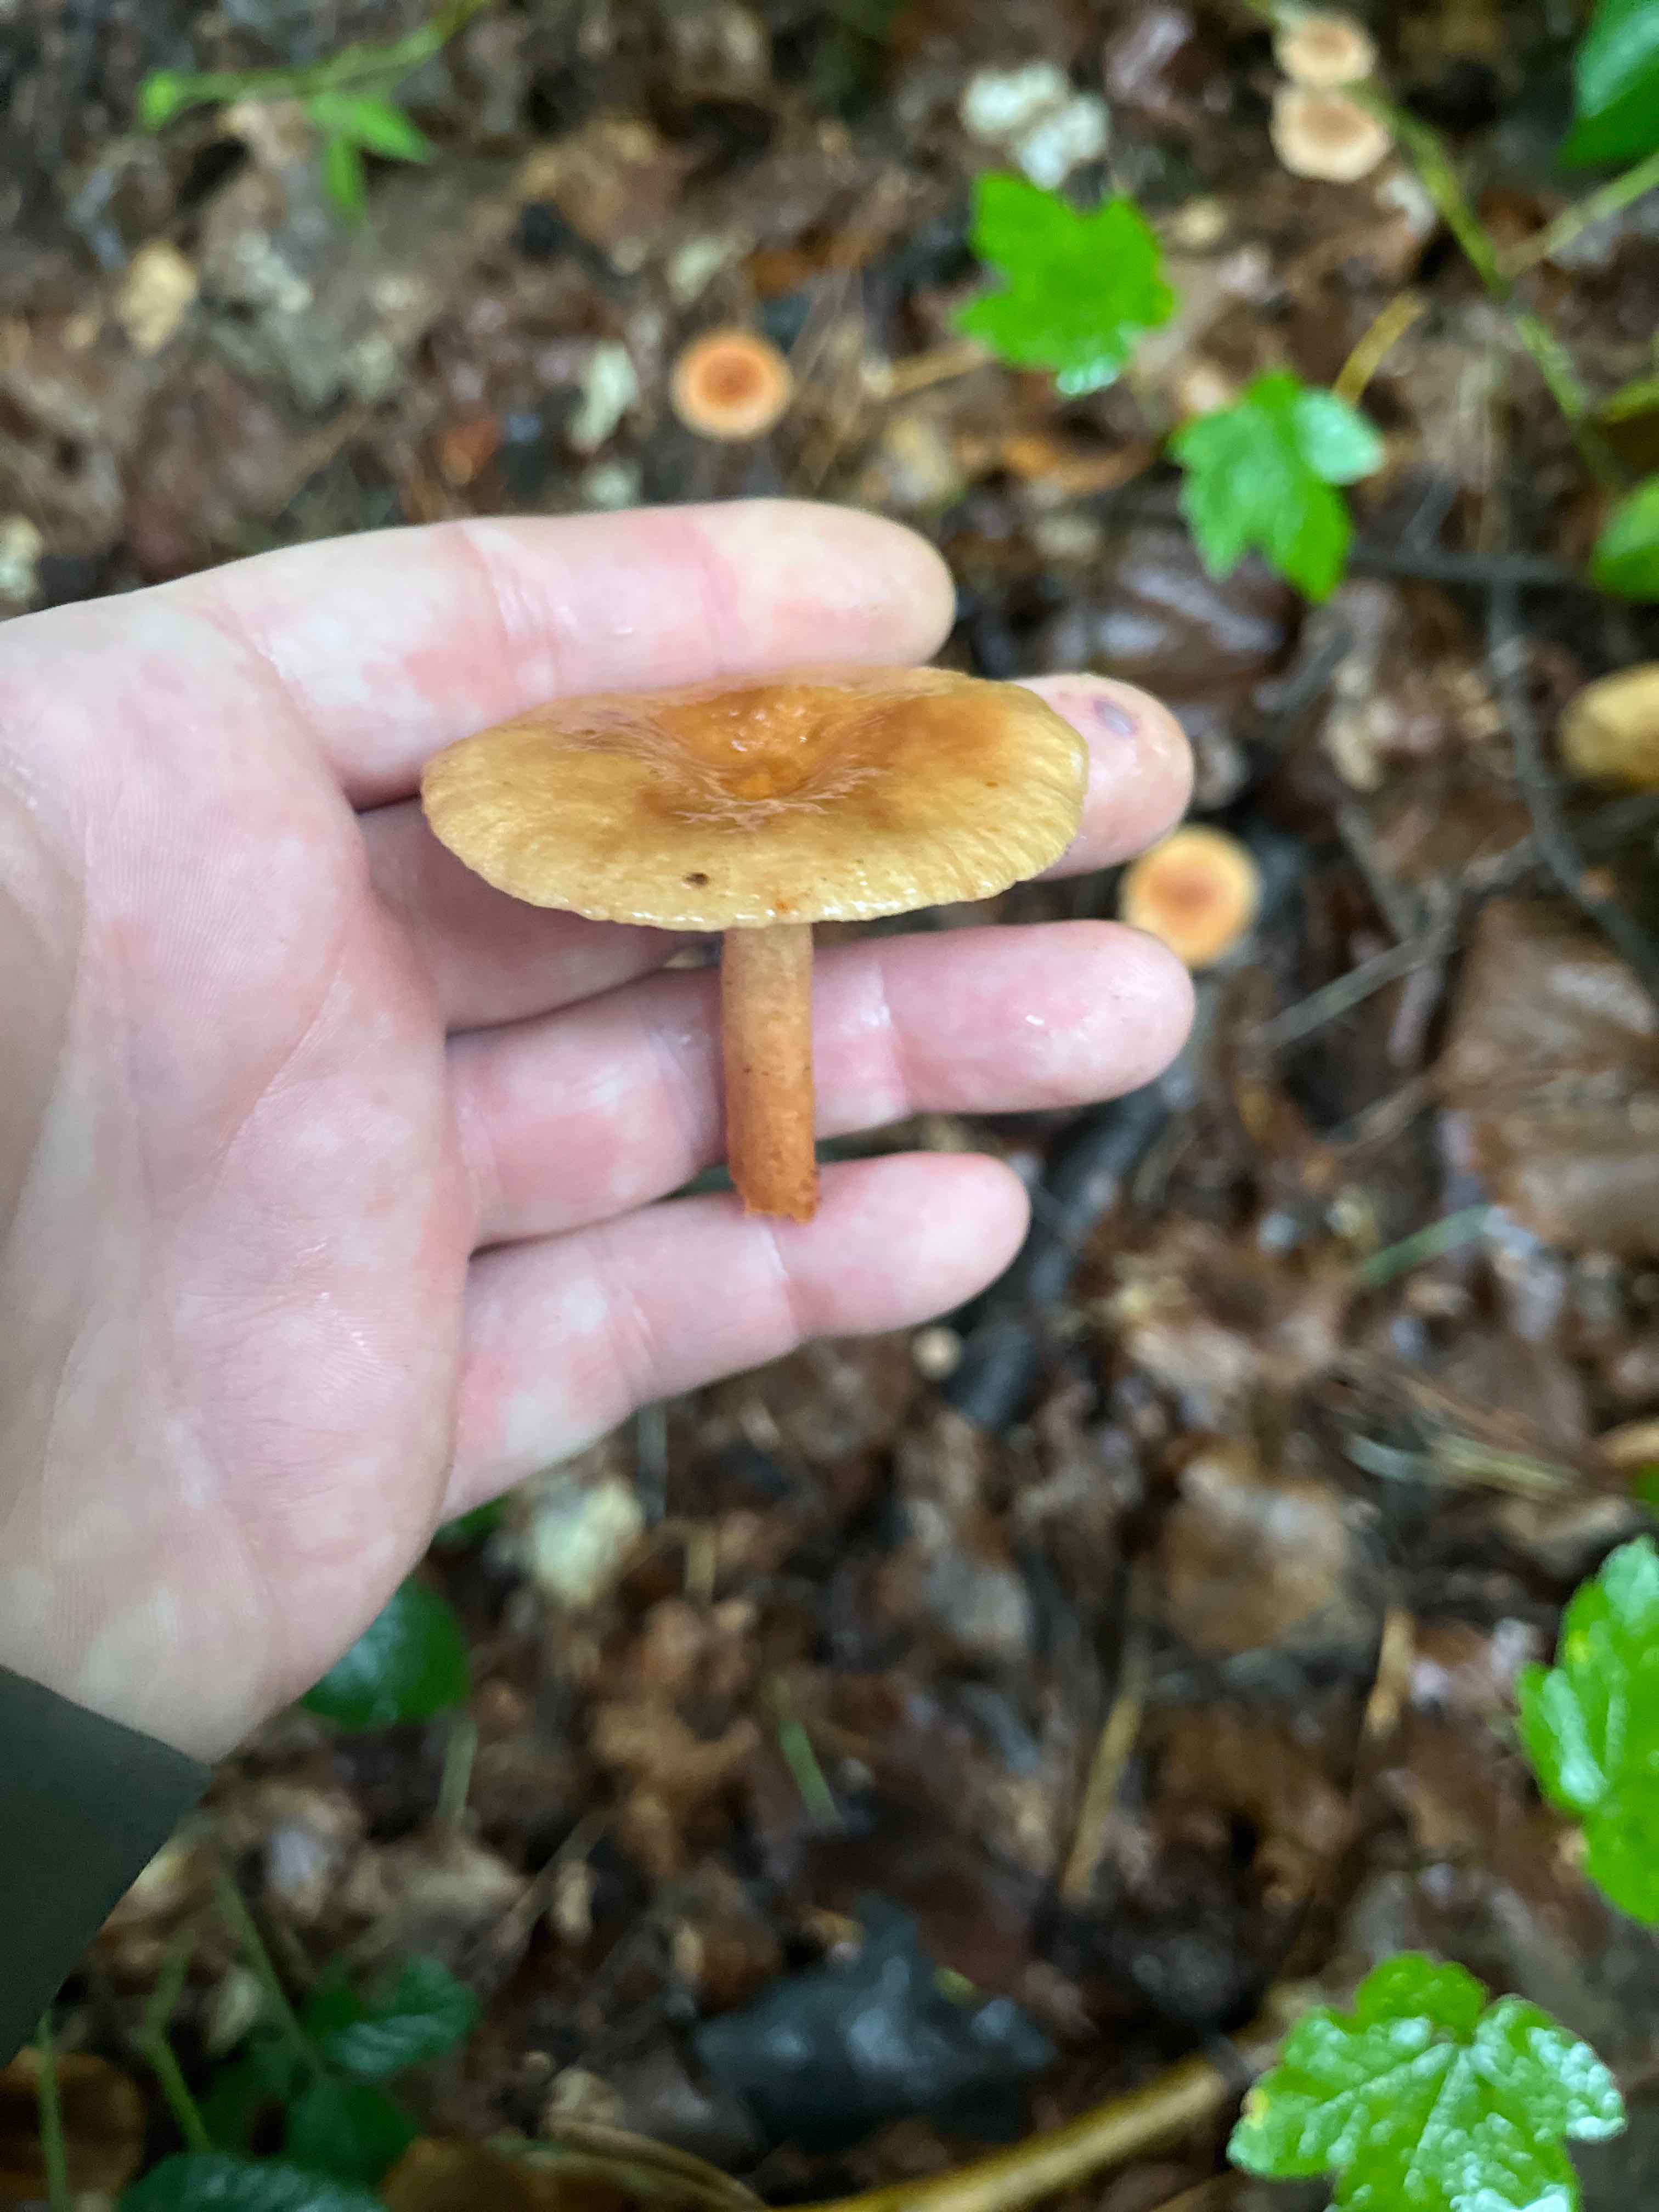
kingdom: Fungi
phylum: Basidiomycota
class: Agaricomycetes
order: Russulales
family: Russulaceae
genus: Lactarius
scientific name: Lactarius
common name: mælkehat
